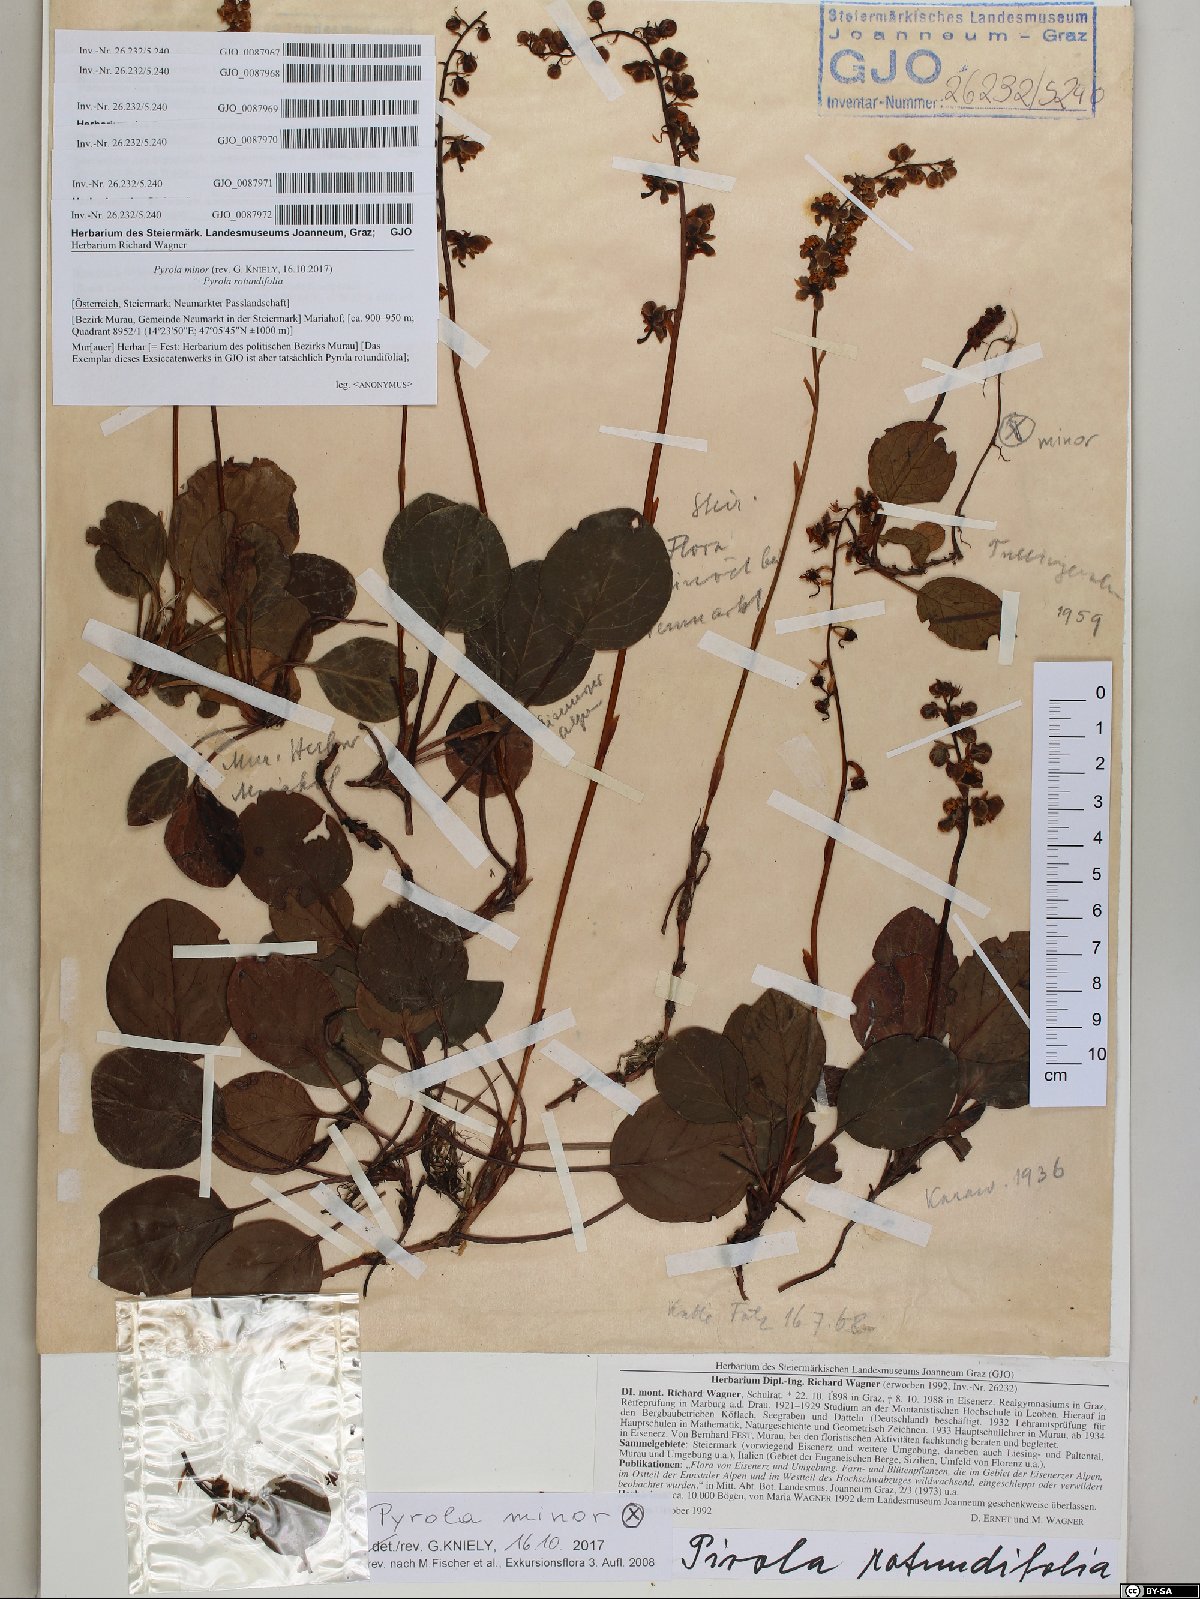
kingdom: Plantae
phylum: Tracheophyta
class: Magnoliopsida
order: Ericales
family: Ericaceae
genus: Pyrola
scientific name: Pyrola rotundifolia
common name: Round-leaved wintergreen
